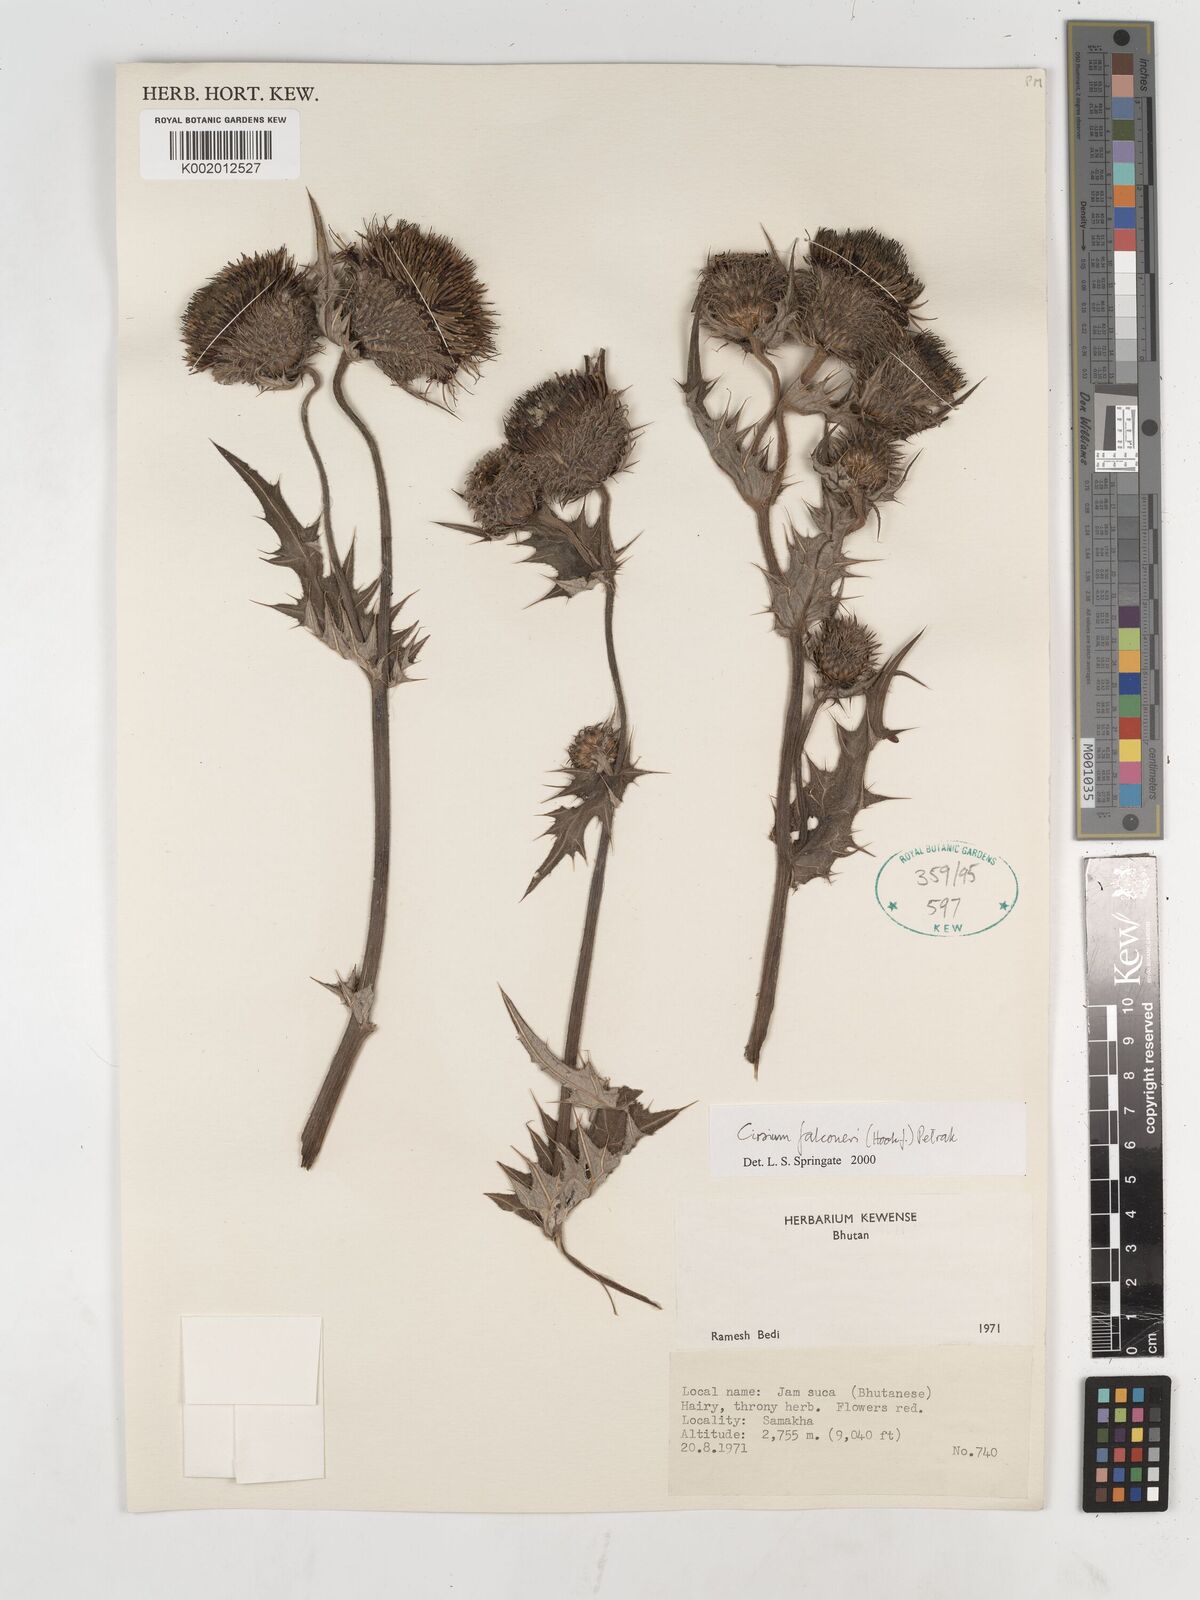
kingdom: Plantae
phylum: Tracheophyta
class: Magnoliopsida
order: Asterales
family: Asteraceae
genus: Cirsium
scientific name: Cirsium falconeri
